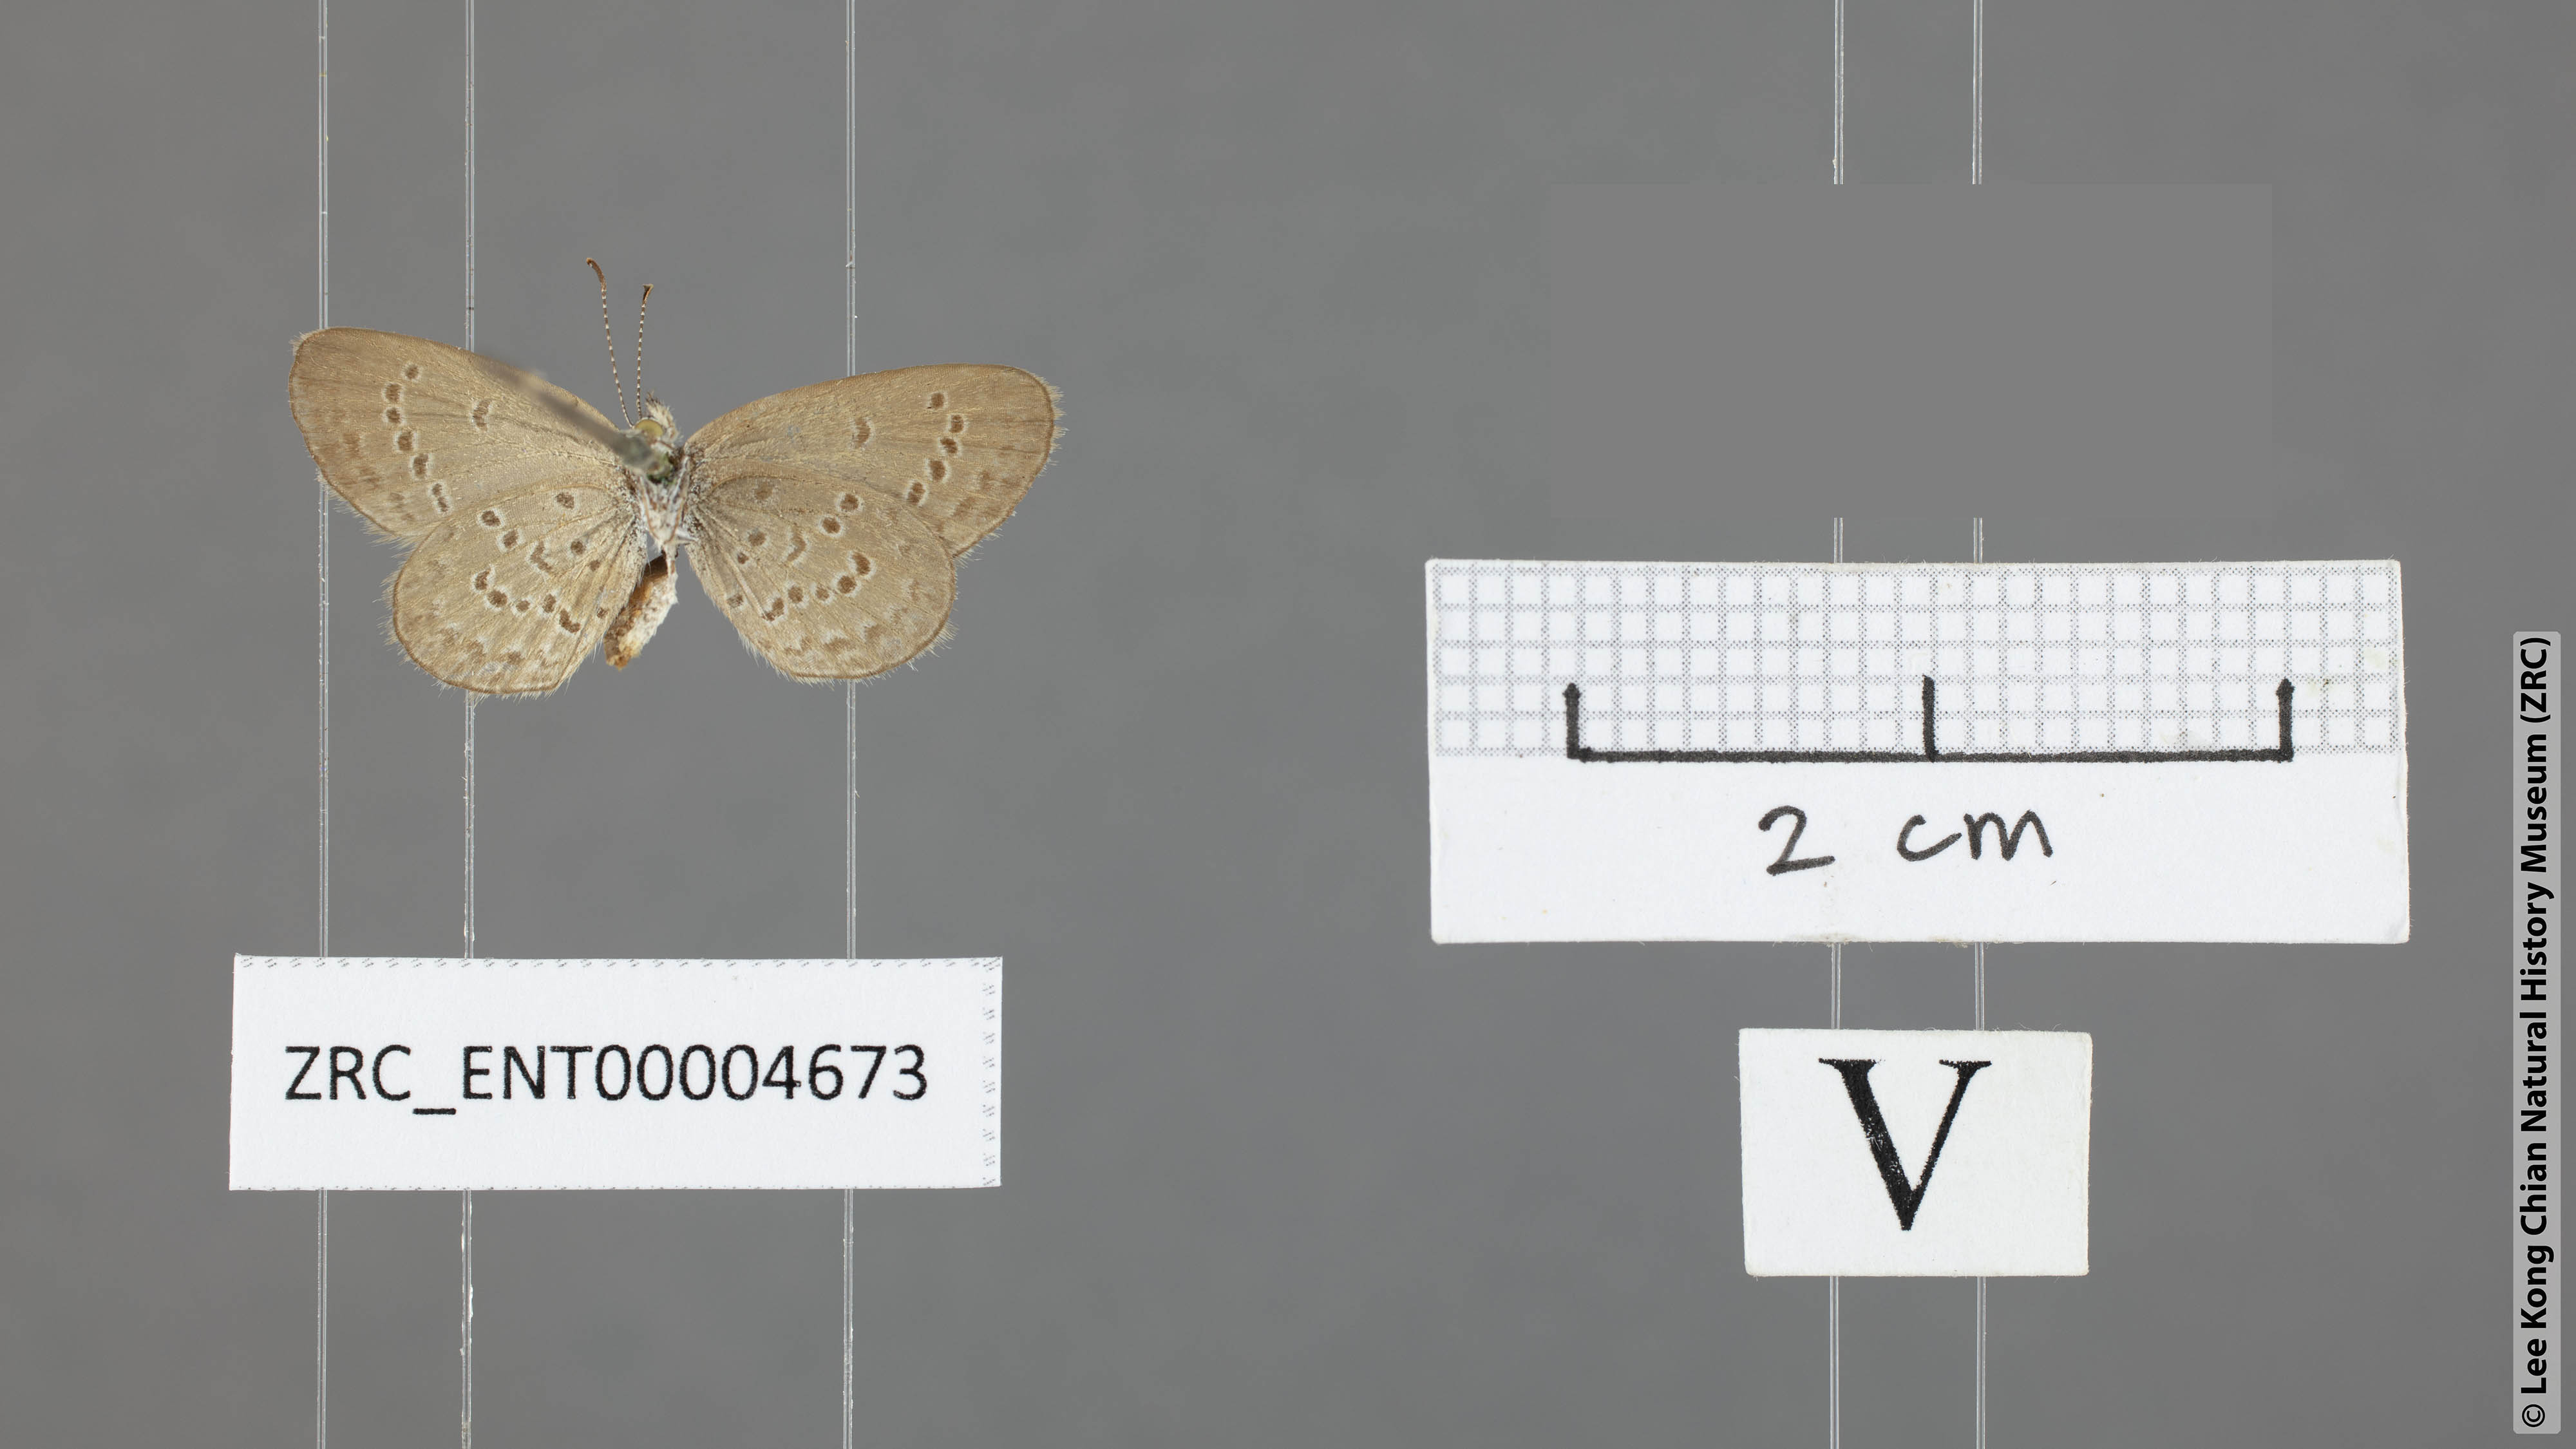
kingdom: Animalia
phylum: Arthropoda
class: Insecta
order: Lepidoptera
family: Lycaenidae
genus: Zizeeria
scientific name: Zizeeria karsandra
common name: Dark grass blue
